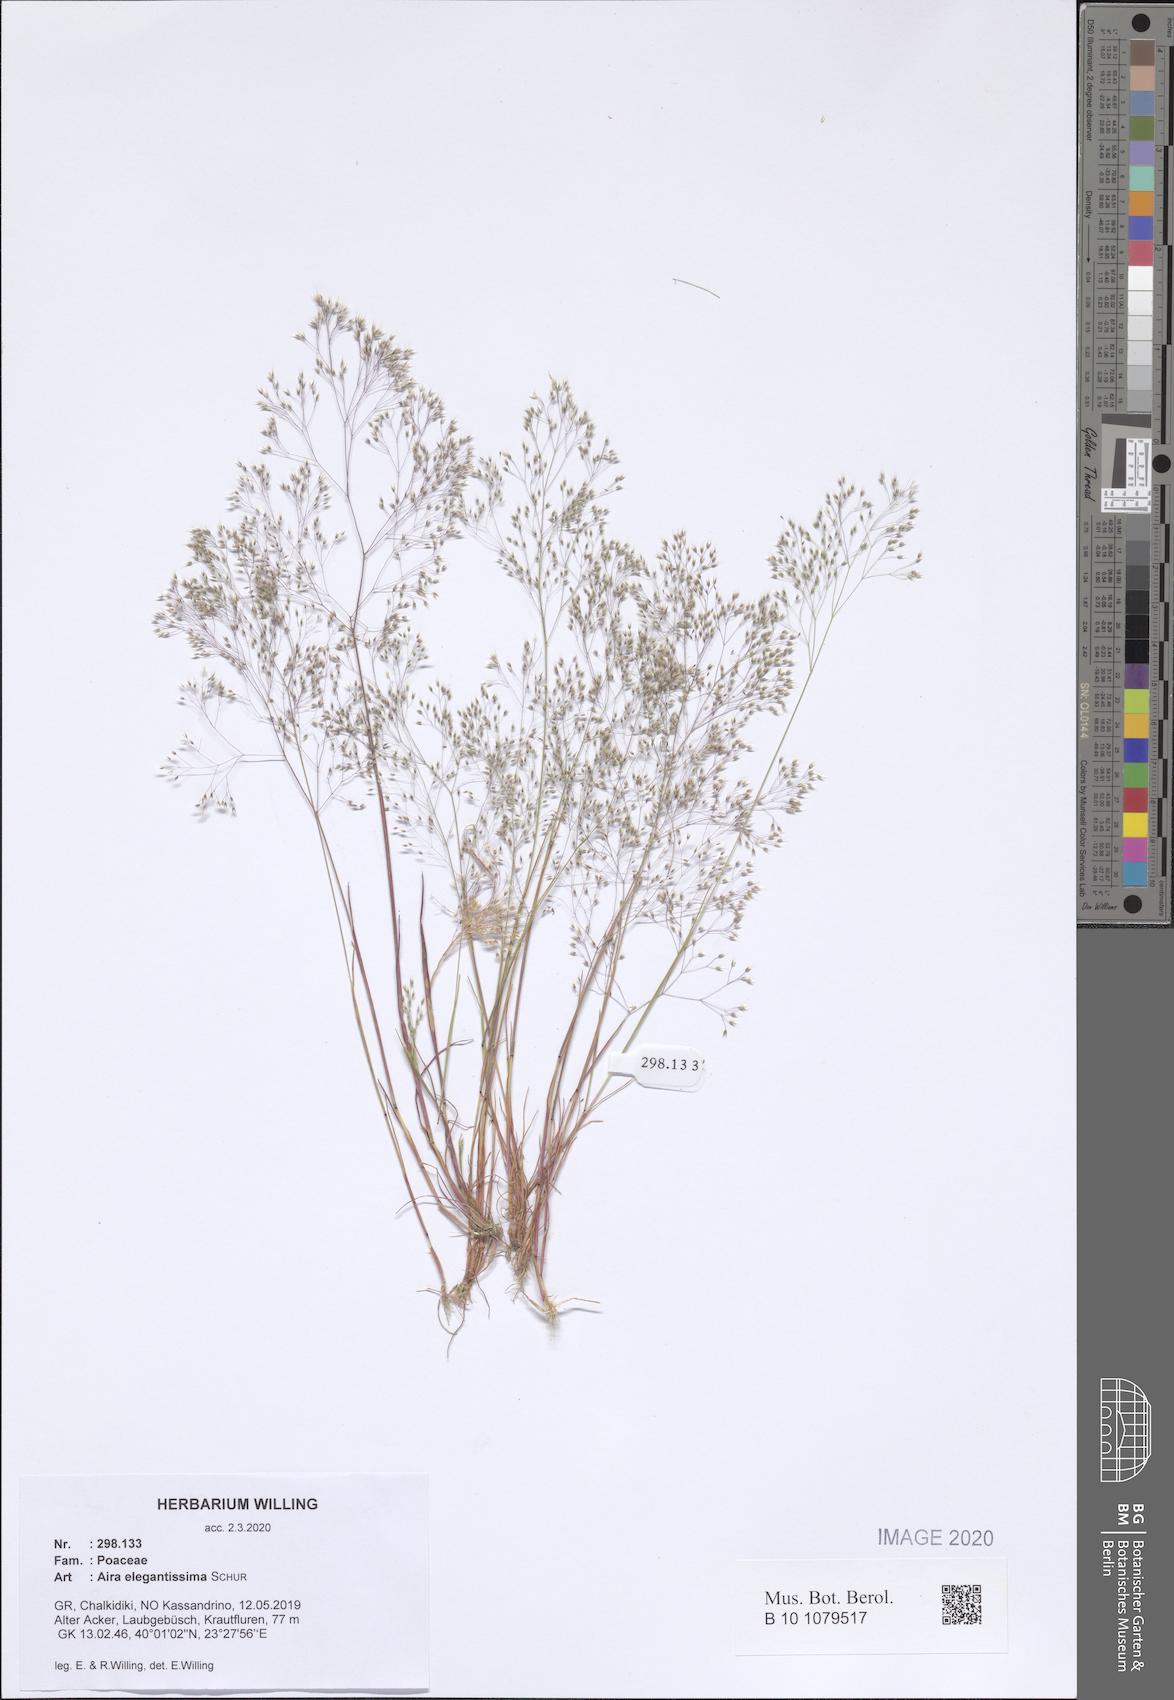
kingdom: Plantae
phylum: Tracheophyta
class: Liliopsida
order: Poales
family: Poaceae
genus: Aira
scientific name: Aira elegans
